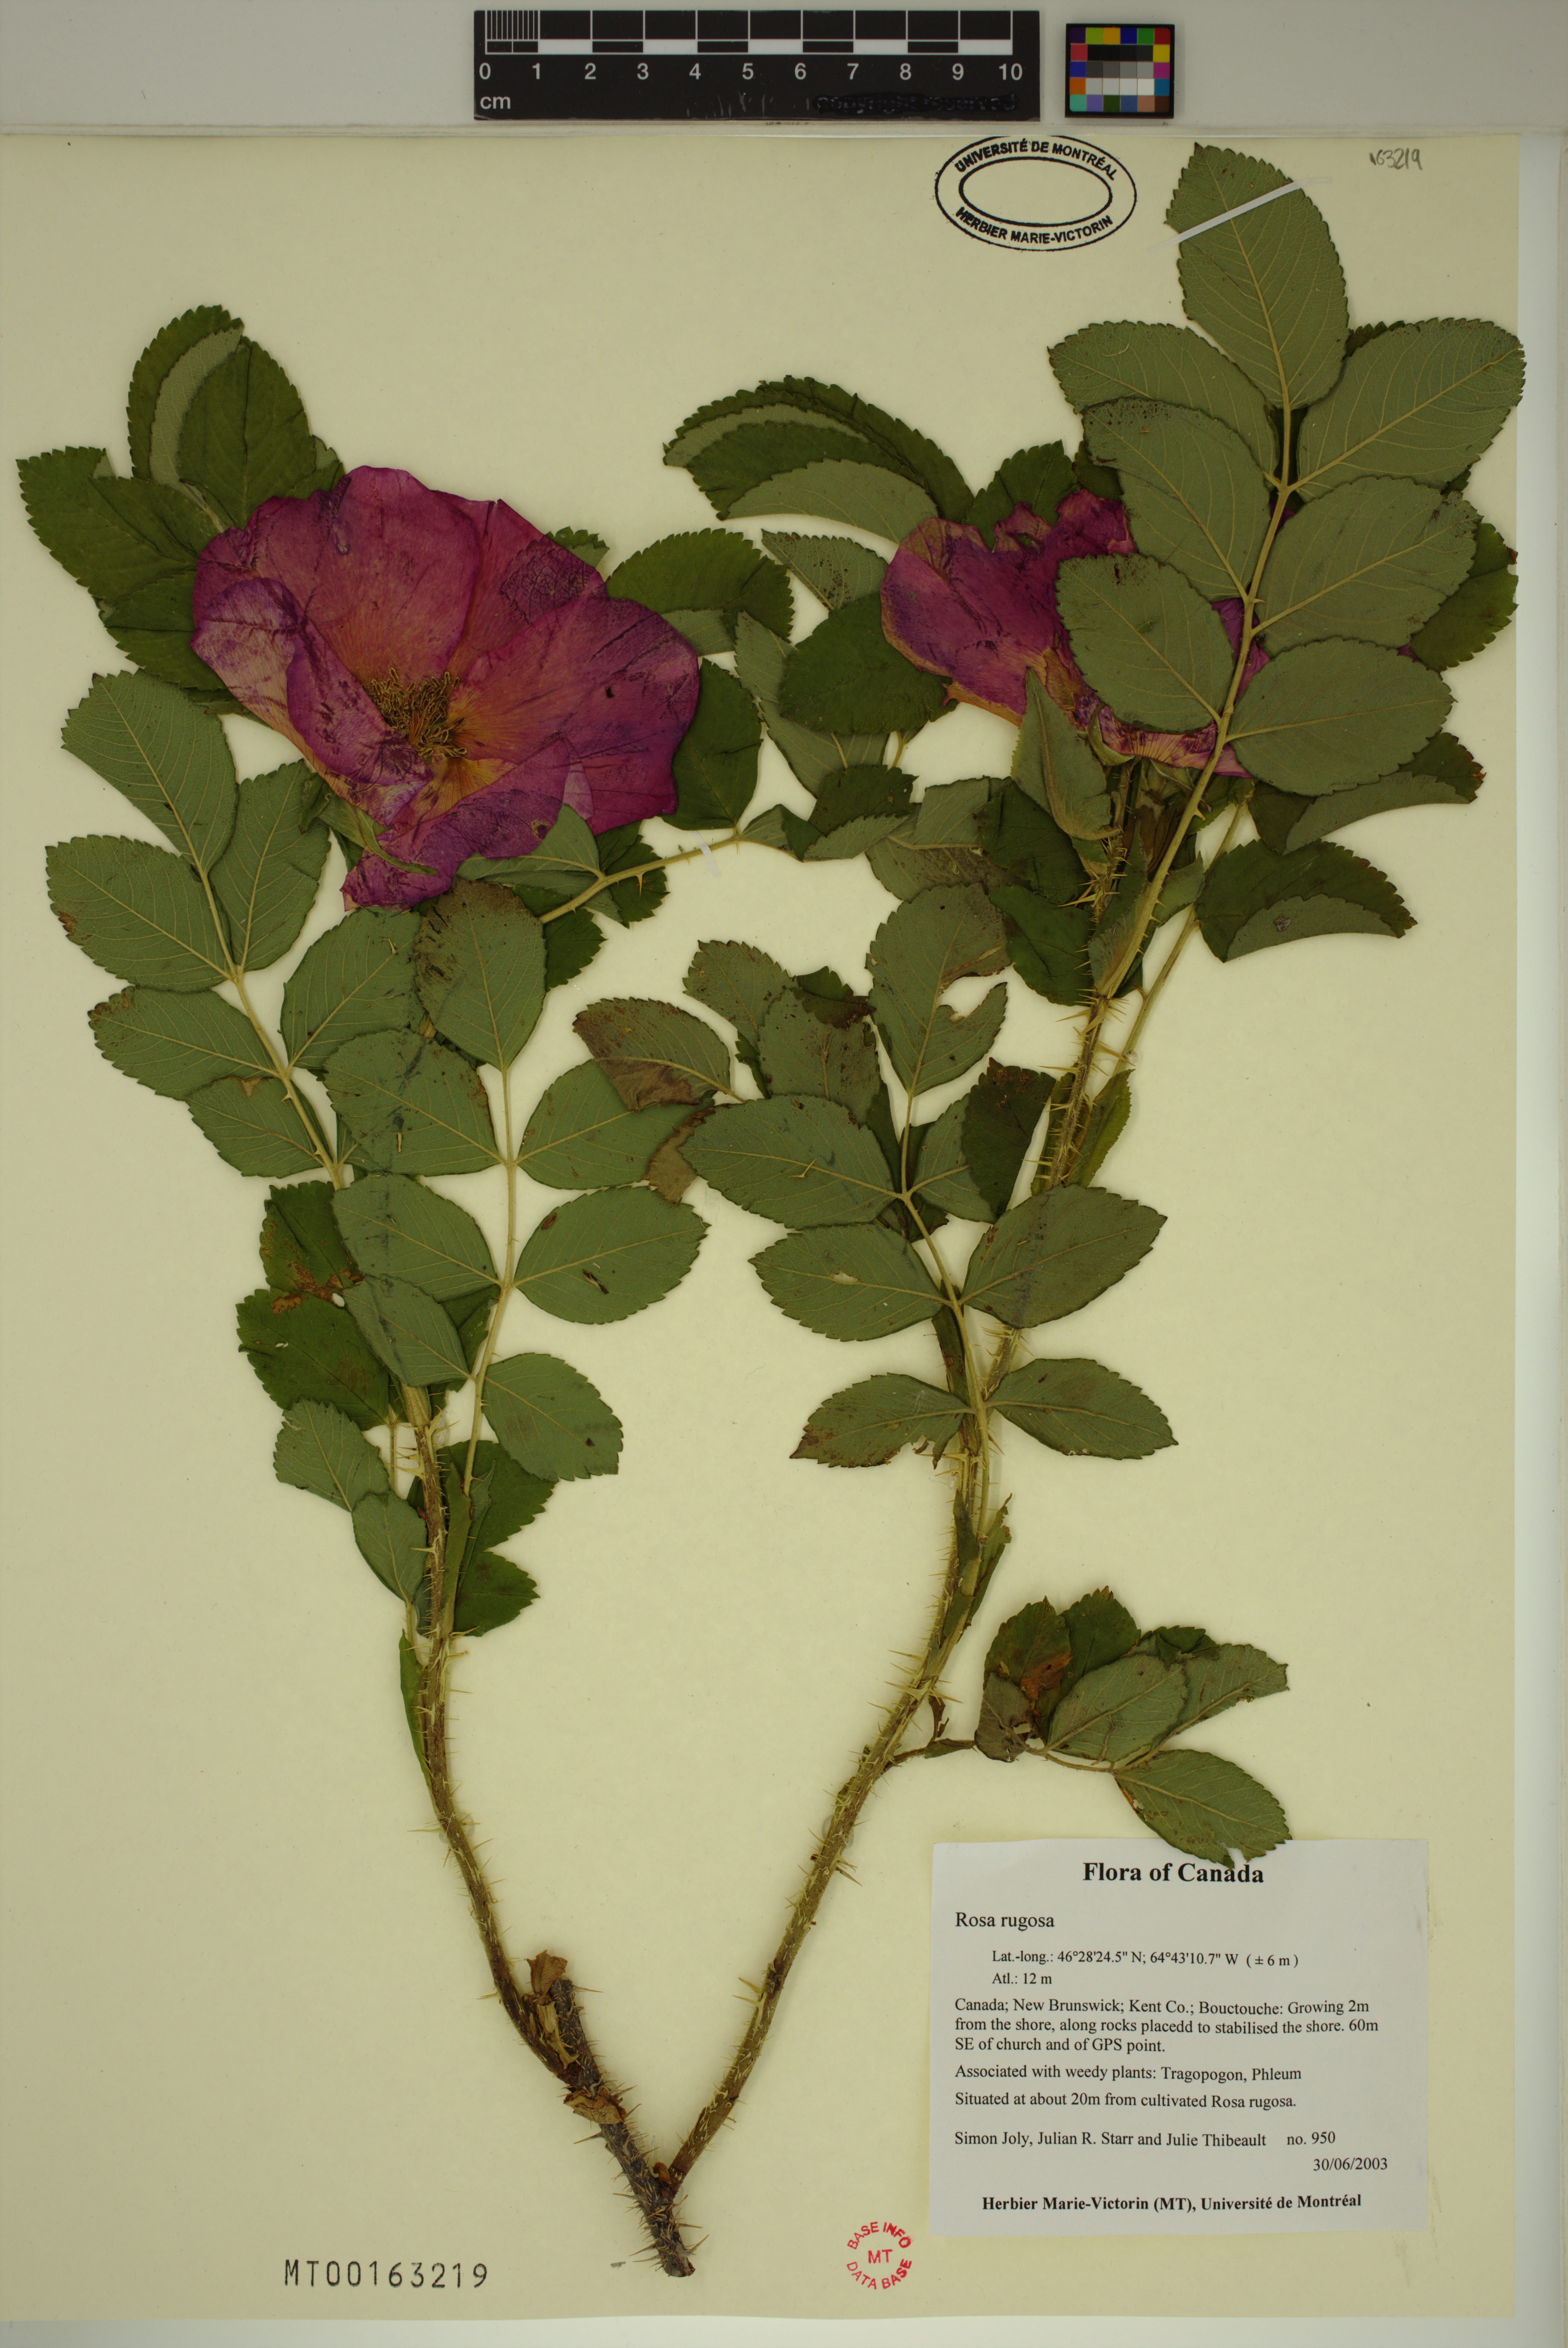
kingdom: Plantae
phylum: Tracheophyta
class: Magnoliopsida
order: Rosales
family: Rosaceae
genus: Rosa
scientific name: Rosa rugosa
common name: Japanese rose
